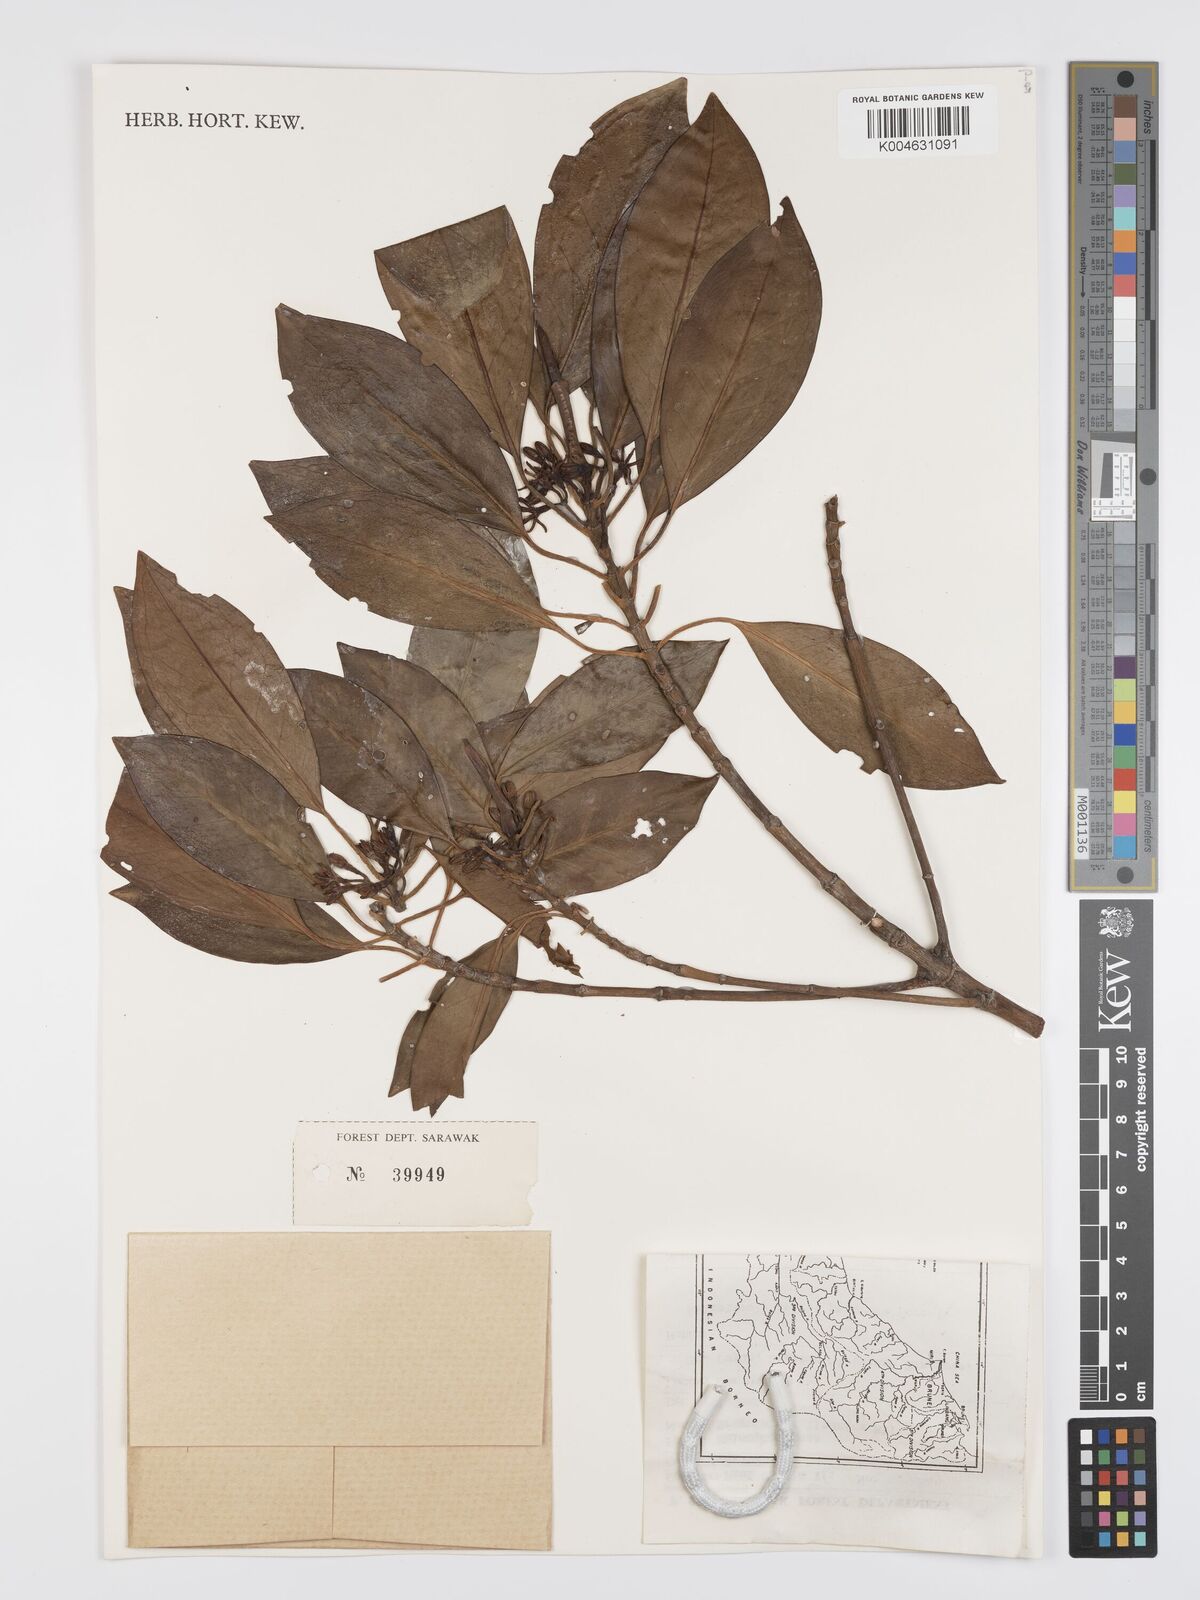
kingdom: Plantae
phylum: Tracheophyta
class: Magnoliopsida
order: Malpighiales
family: Rhizophoraceae
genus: Bruguiera
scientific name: Bruguiera cylindrica
